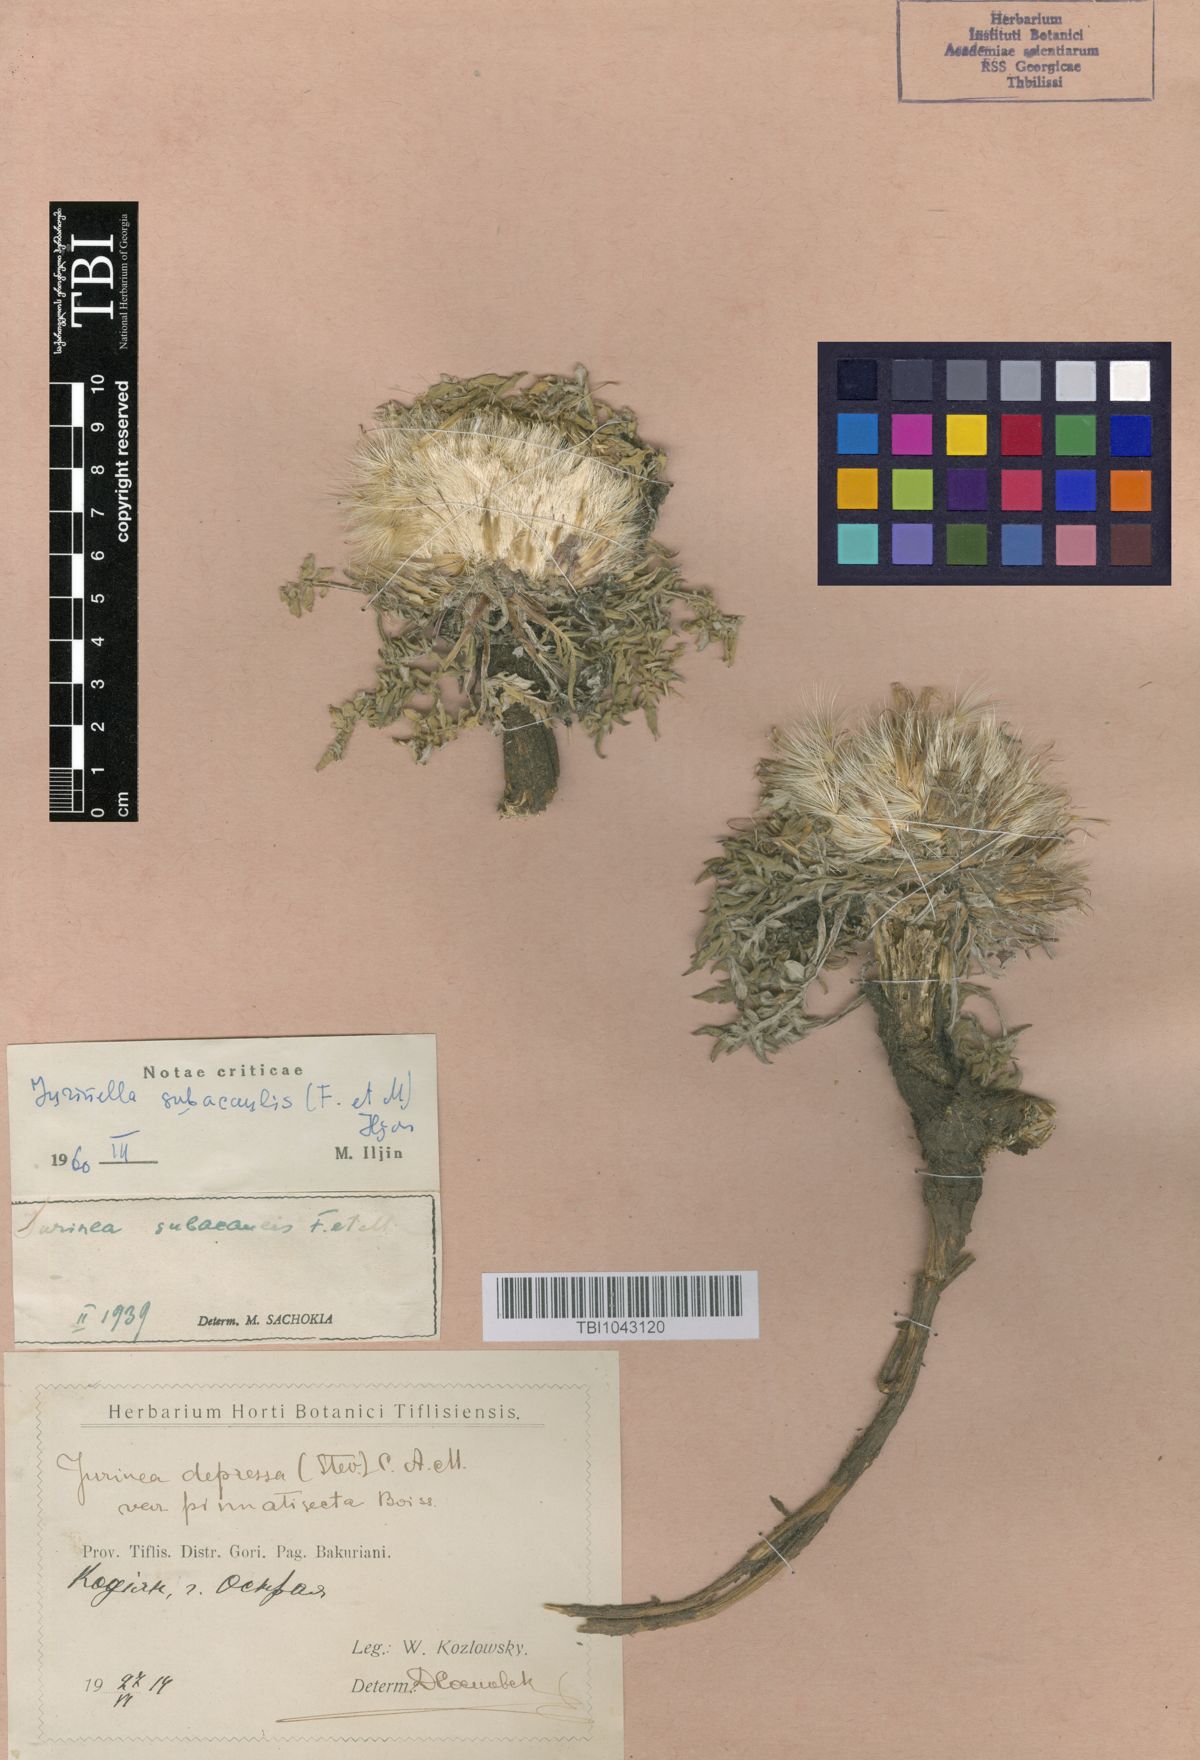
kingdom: Plantae
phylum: Tracheophyta
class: Magnoliopsida
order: Asterales
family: Asteraceae
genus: Jurinea
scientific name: Jurinea moschus
